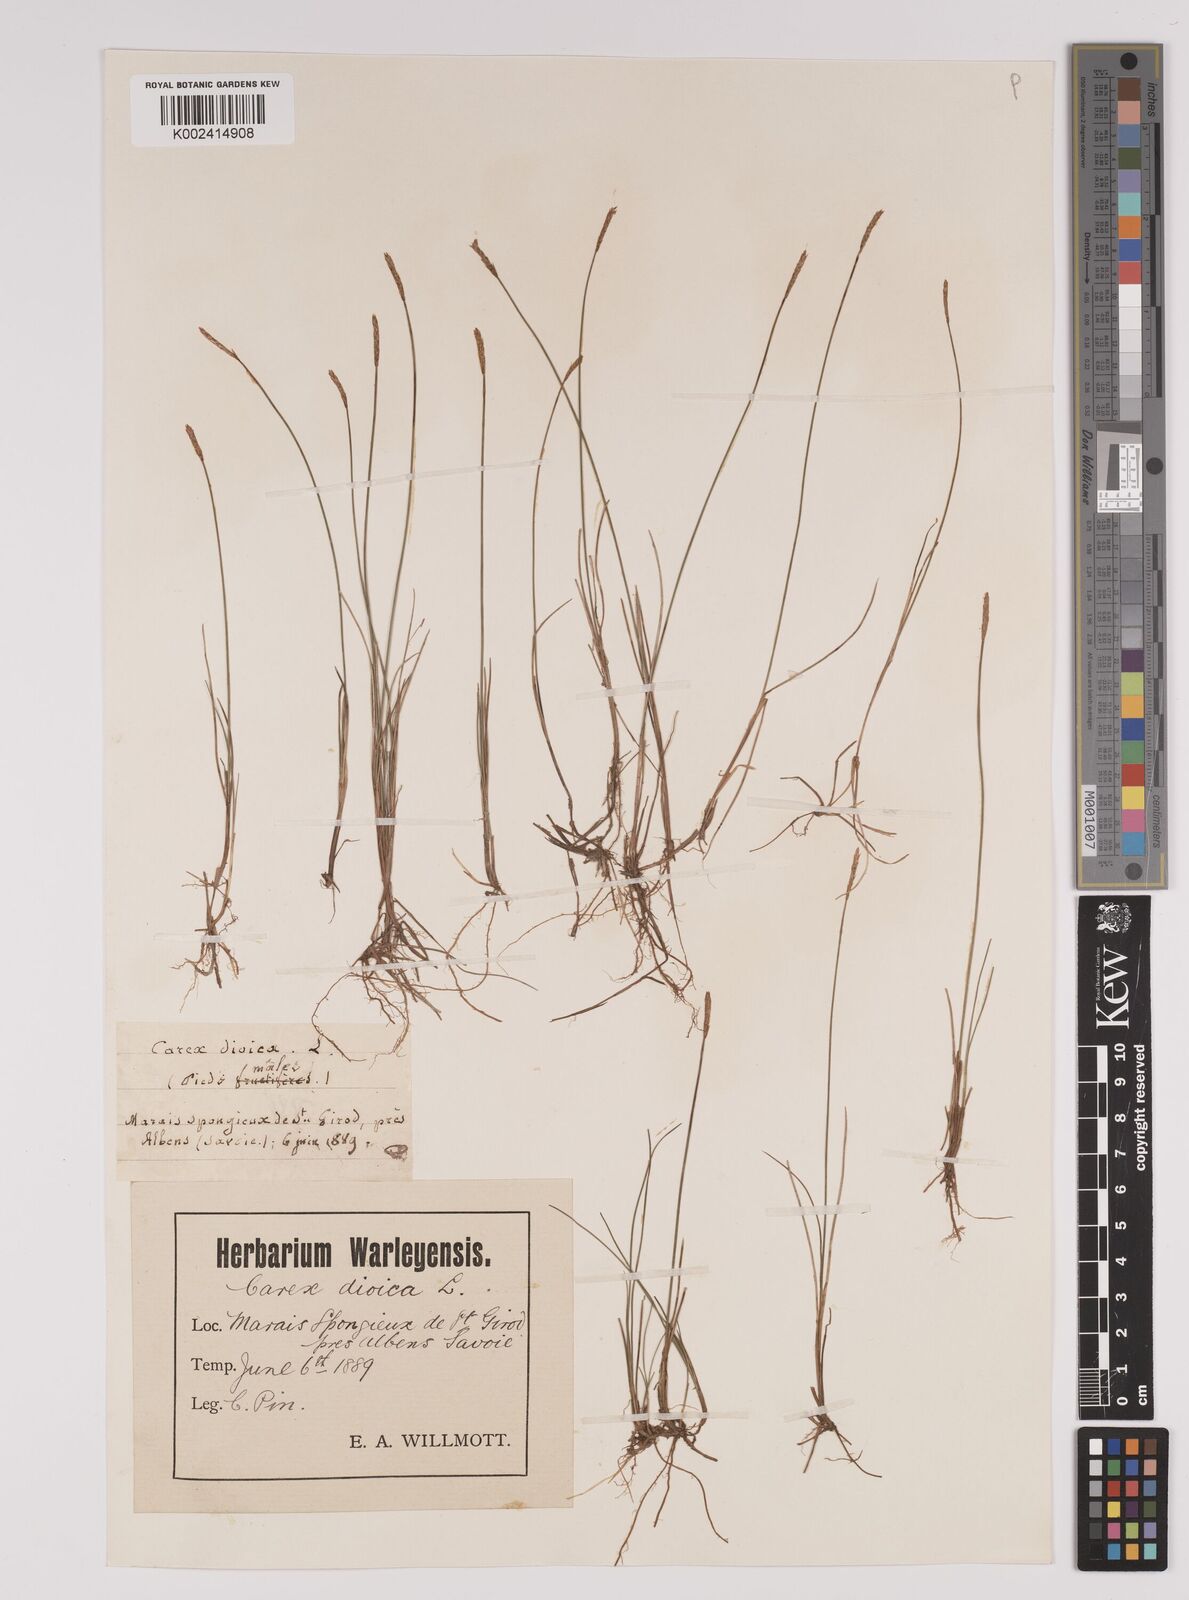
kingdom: Plantae
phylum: Tracheophyta
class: Liliopsida
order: Poales
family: Cyperaceae
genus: Carex
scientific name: Carex dioica
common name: Dioecious sedge
